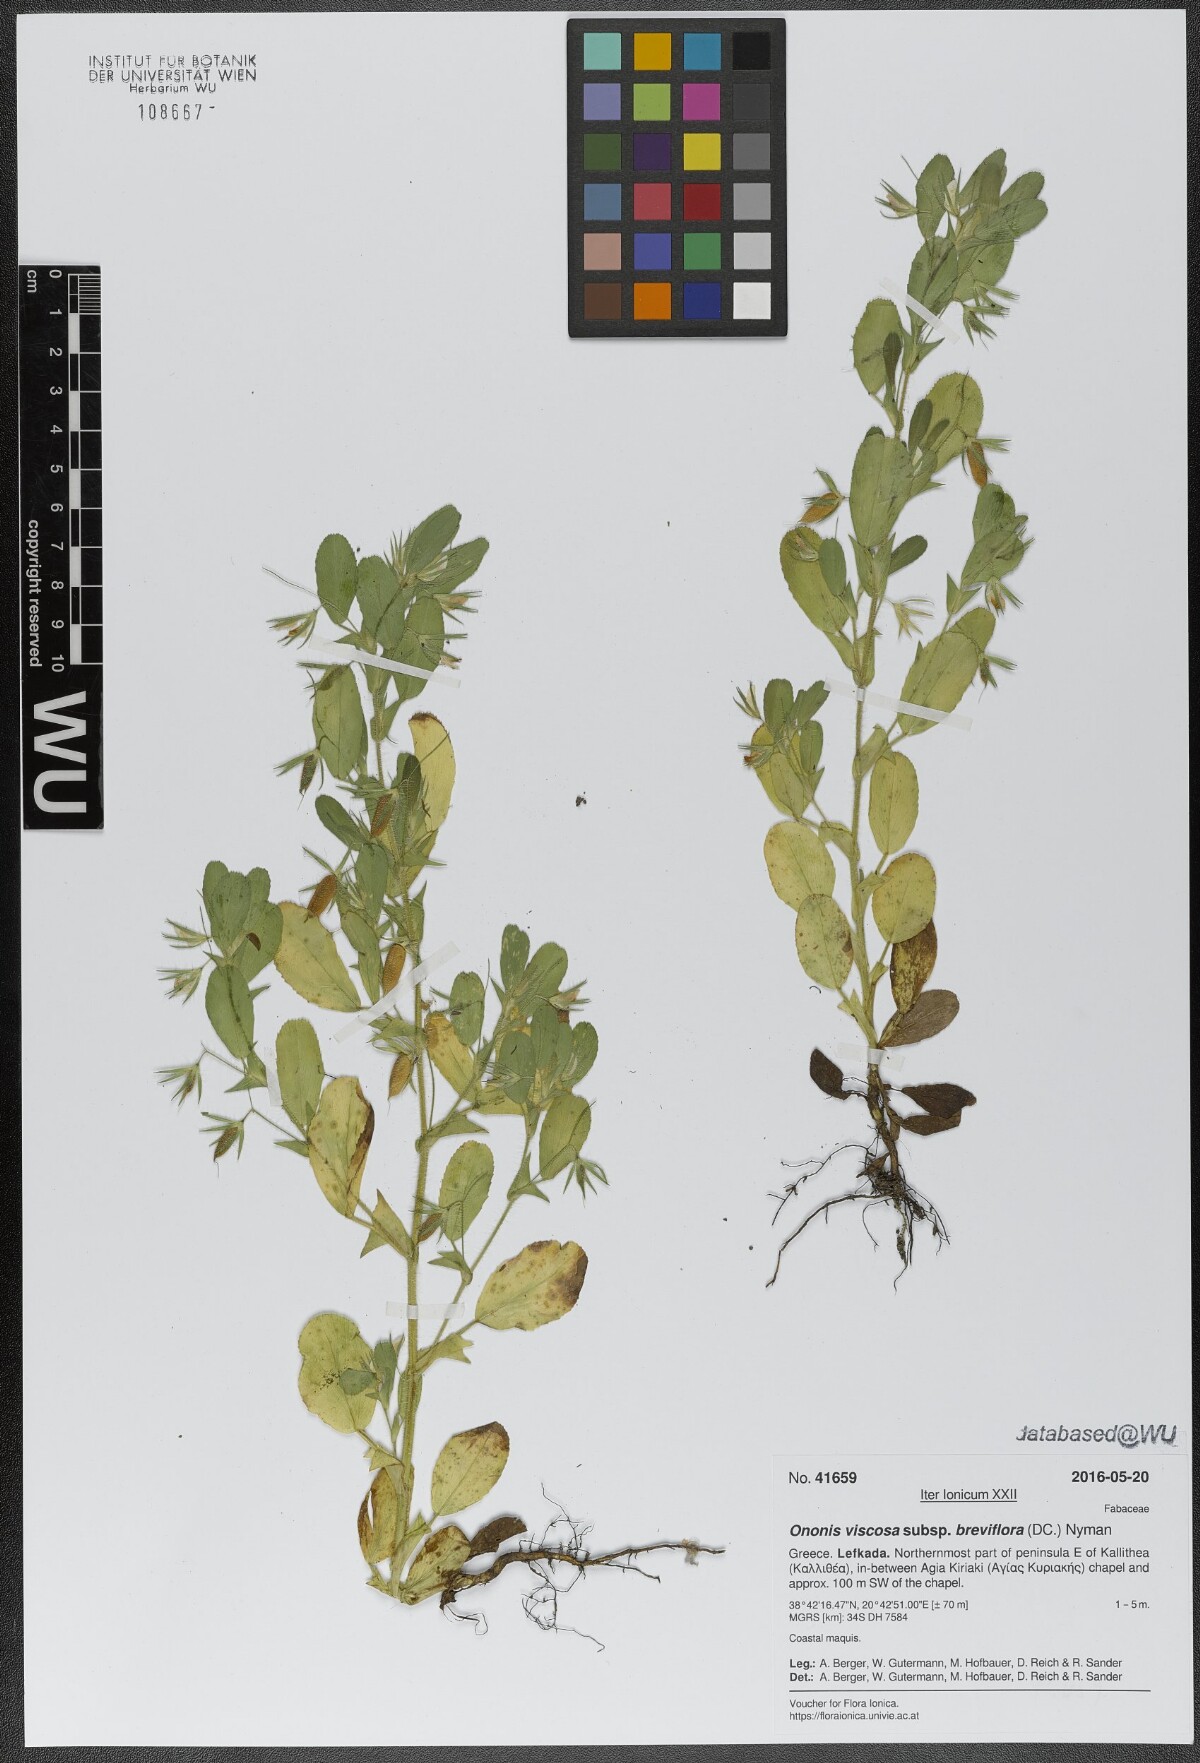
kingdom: Plantae
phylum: Tracheophyta
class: Magnoliopsida
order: Fabales
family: Fabaceae
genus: Ononis
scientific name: Ononis viscosa
